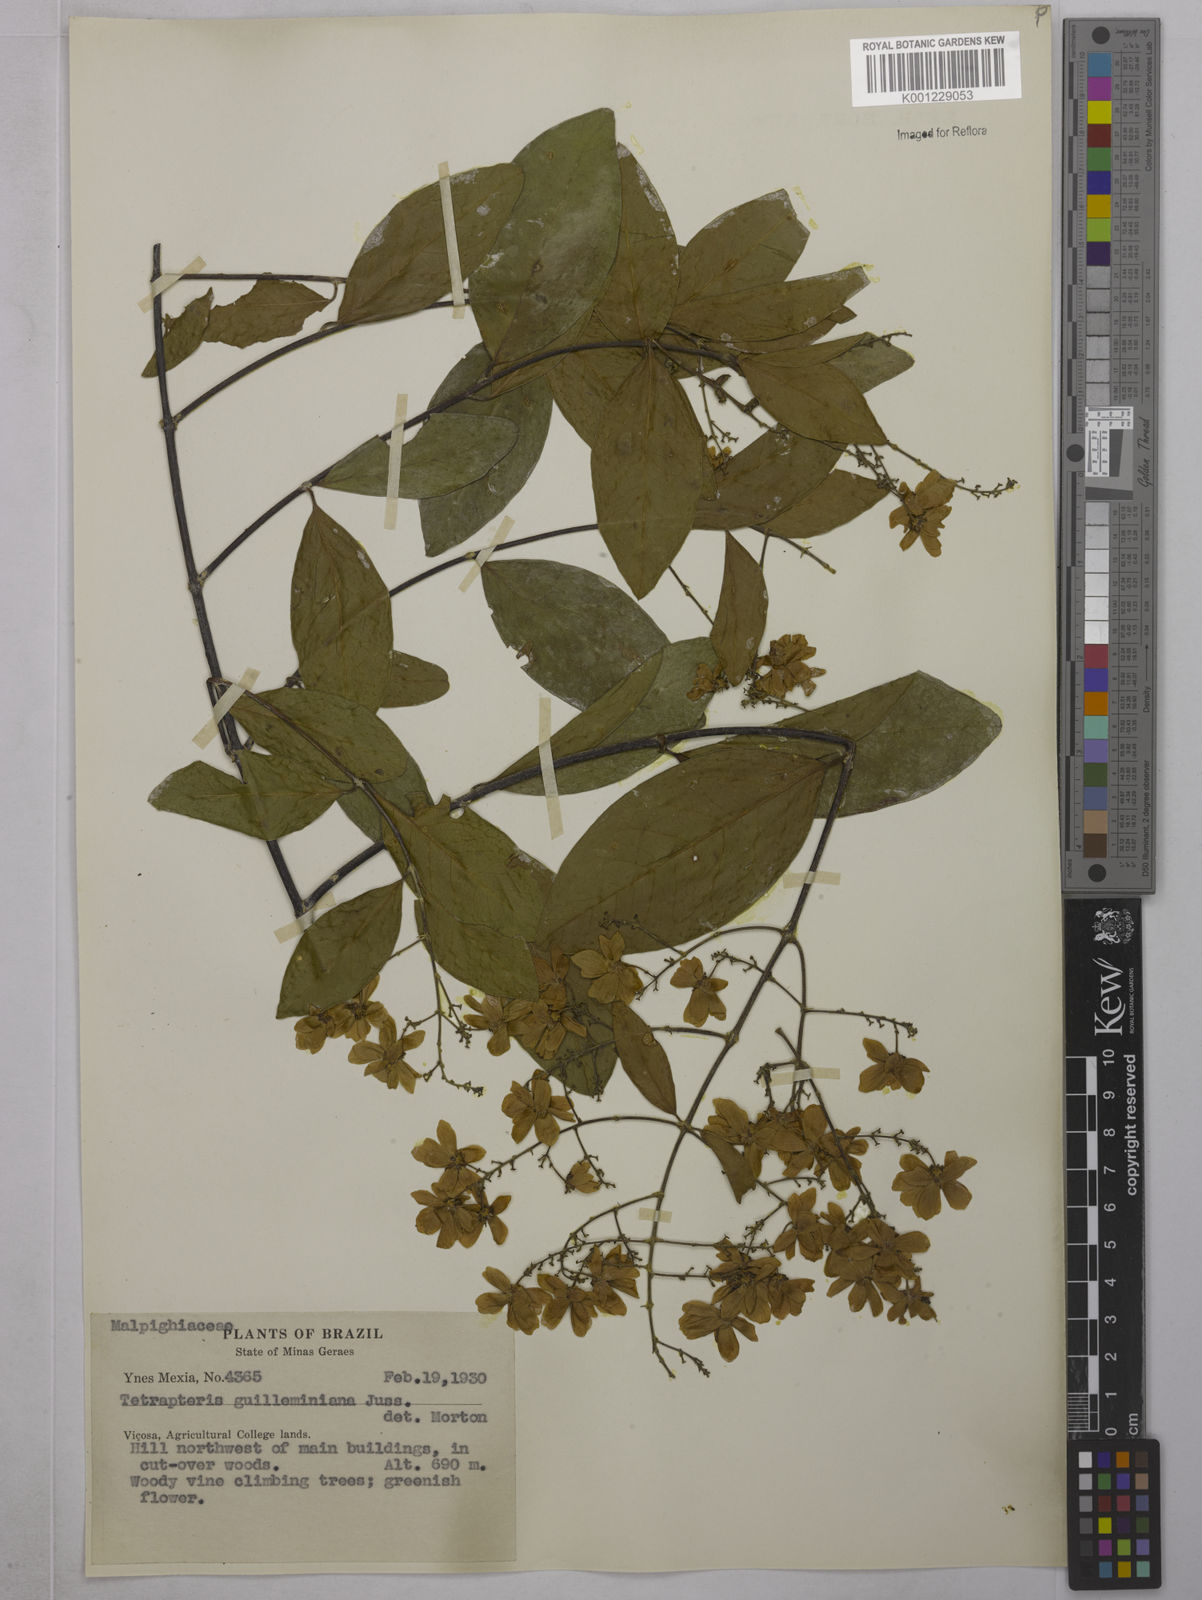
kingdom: Plantae
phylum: Tracheophyta
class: Magnoliopsida
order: Malpighiales
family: Malpighiaceae
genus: Niedenzuella
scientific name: Niedenzuella acutifolia
